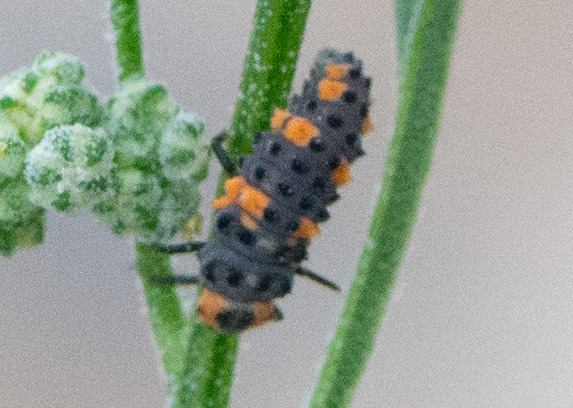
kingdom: Animalia
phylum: Arthropoda
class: Insecta
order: Coleoptera
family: Coccinellidae
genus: Coccinella
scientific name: Coccinella septempunctata
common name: Syvplettet mariehøne
